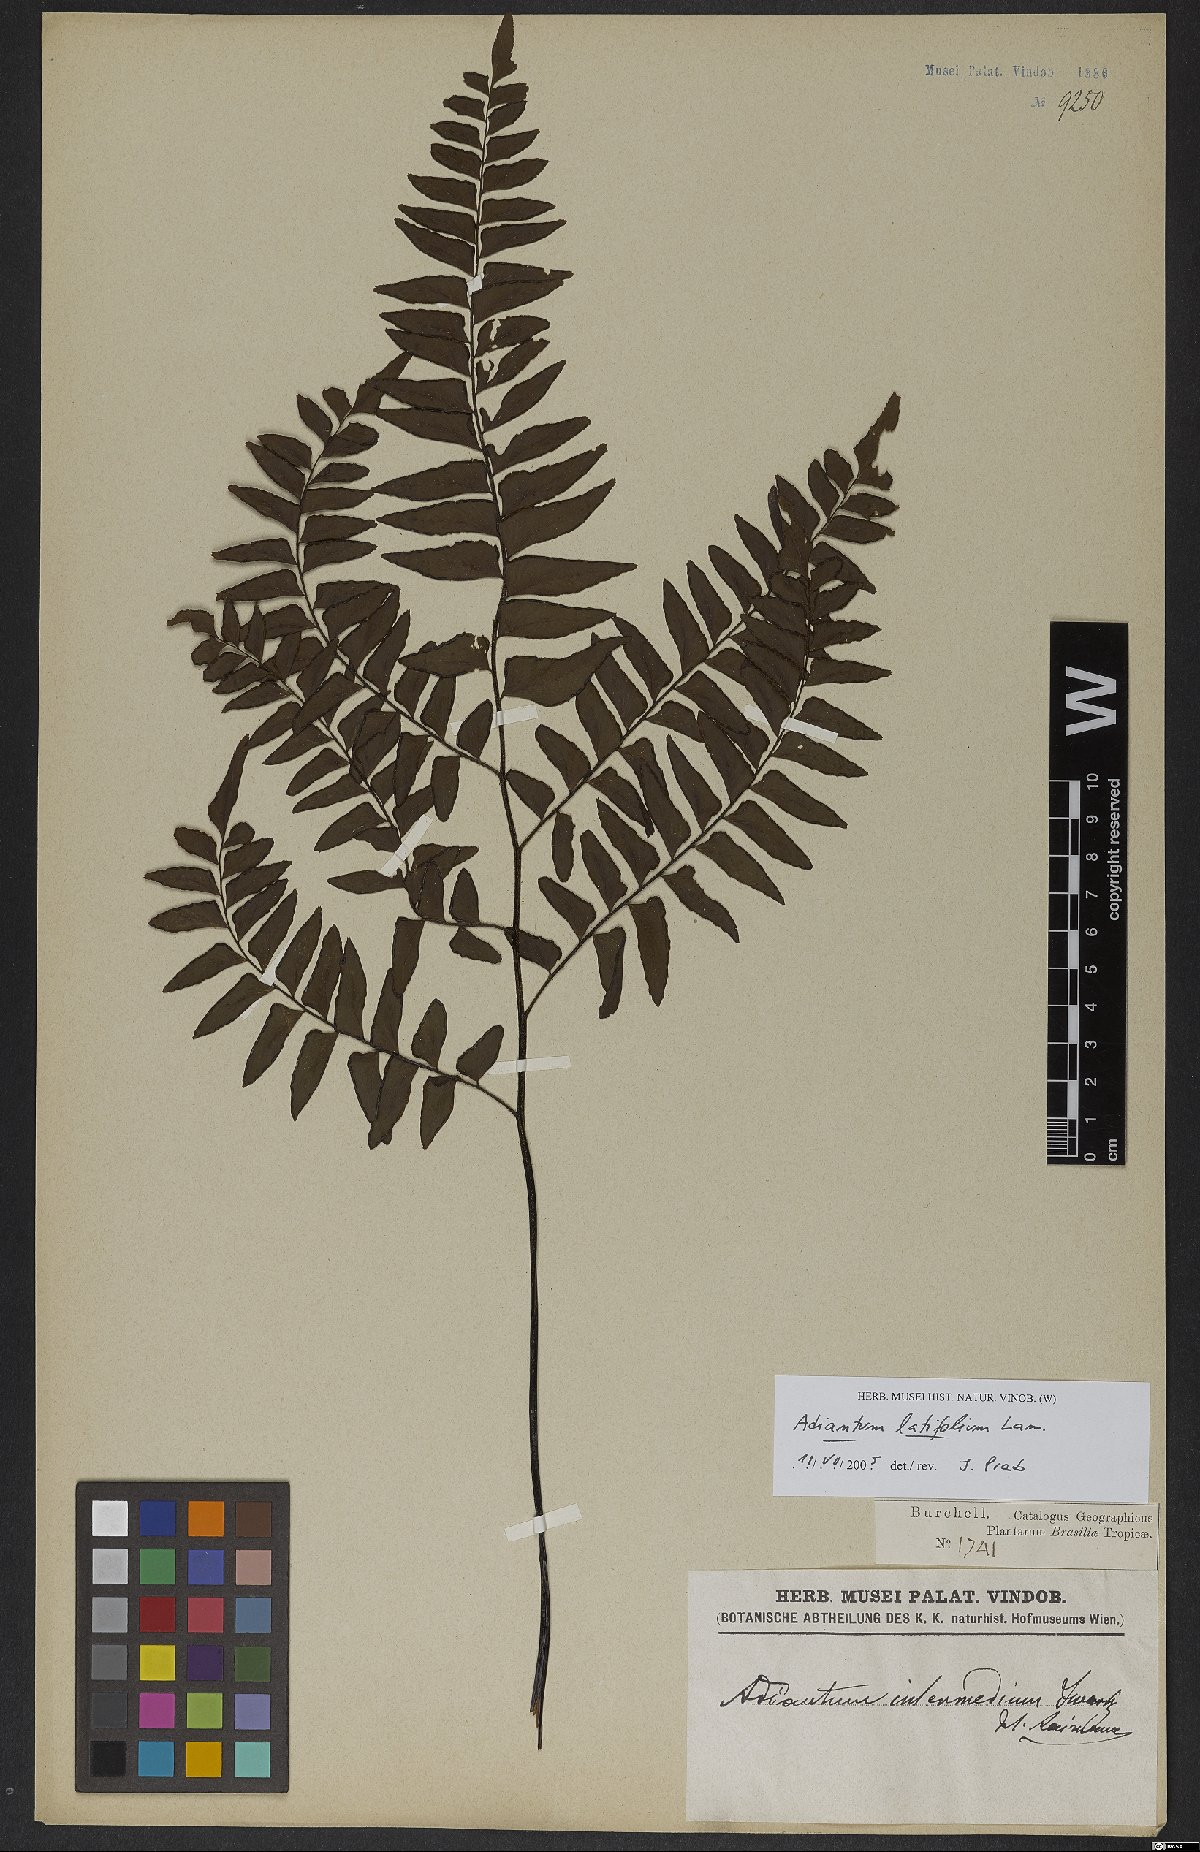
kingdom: Plantae
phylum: Tracheophyta
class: Polypodiopsida
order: Polypodiales
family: Pteridaceae
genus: Adiantum
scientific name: Adiantum latifolium
